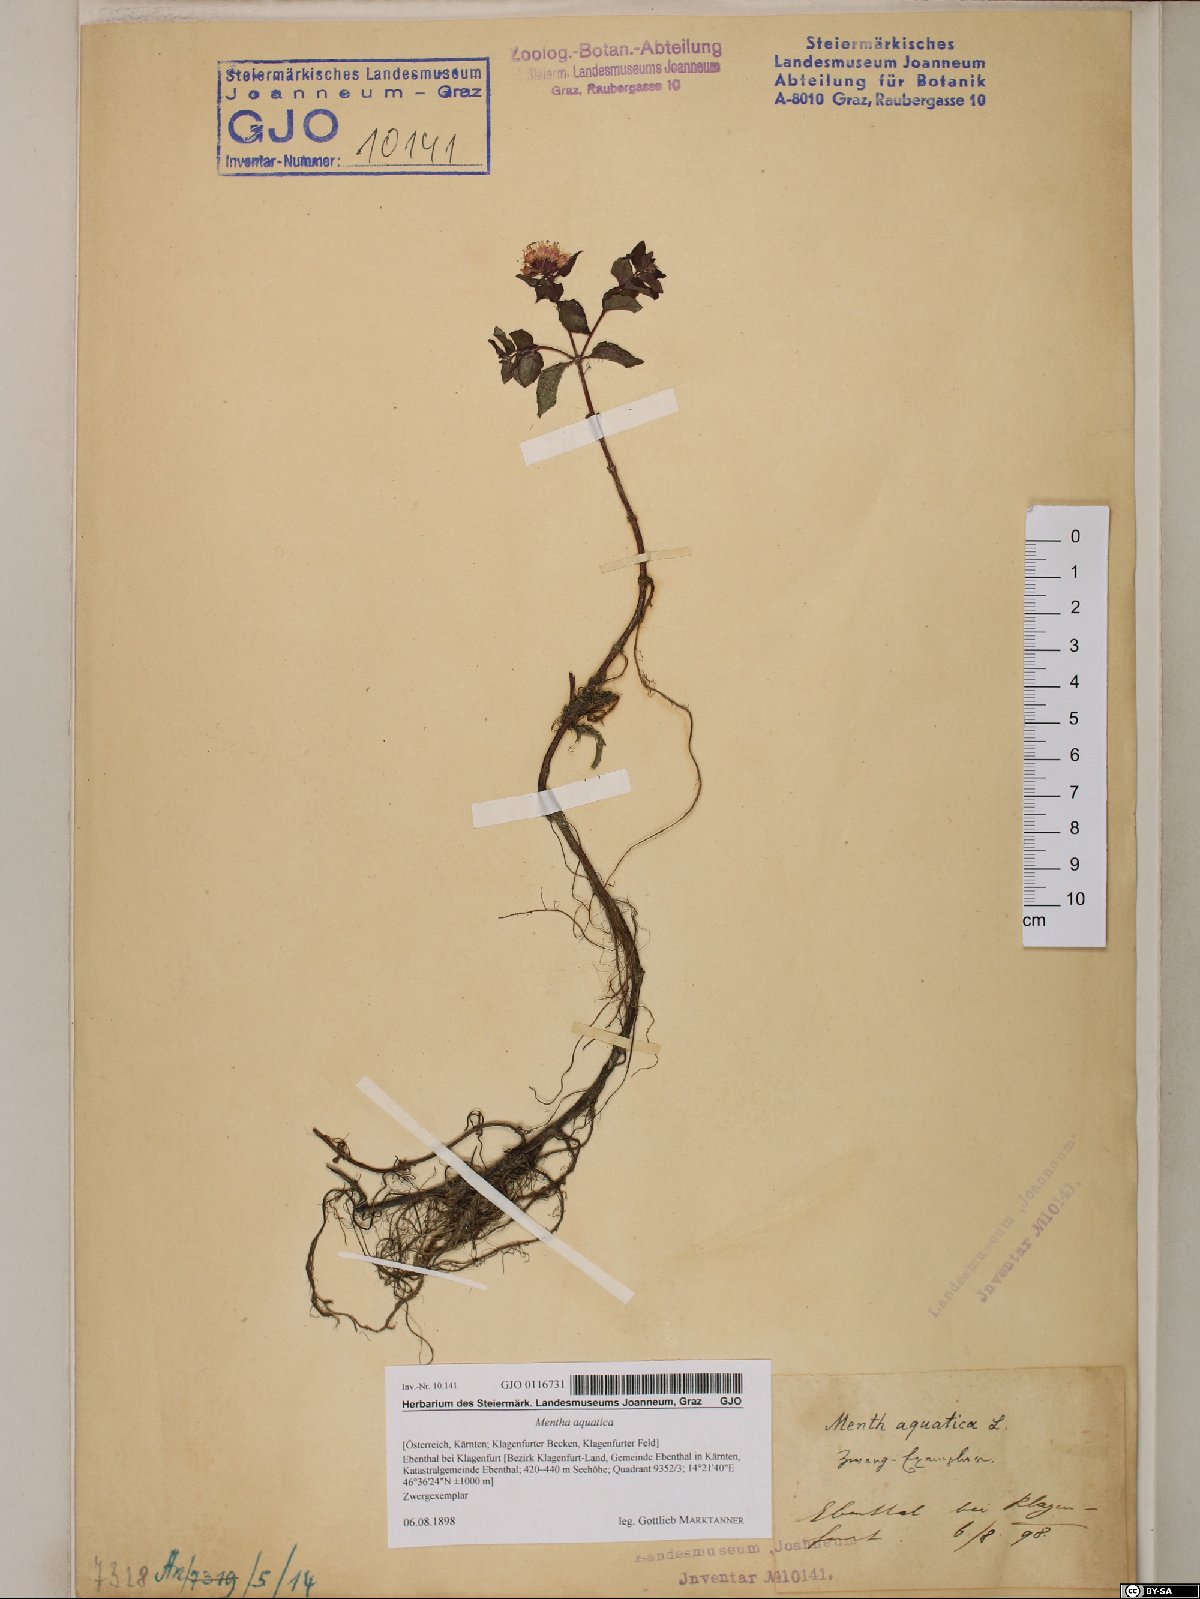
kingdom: Plantae
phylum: Tracheophyta
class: Magnoliopsida
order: Lamiales
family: Lamiaceae
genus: Mentha
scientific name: Mentha aquatica
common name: Water mint
